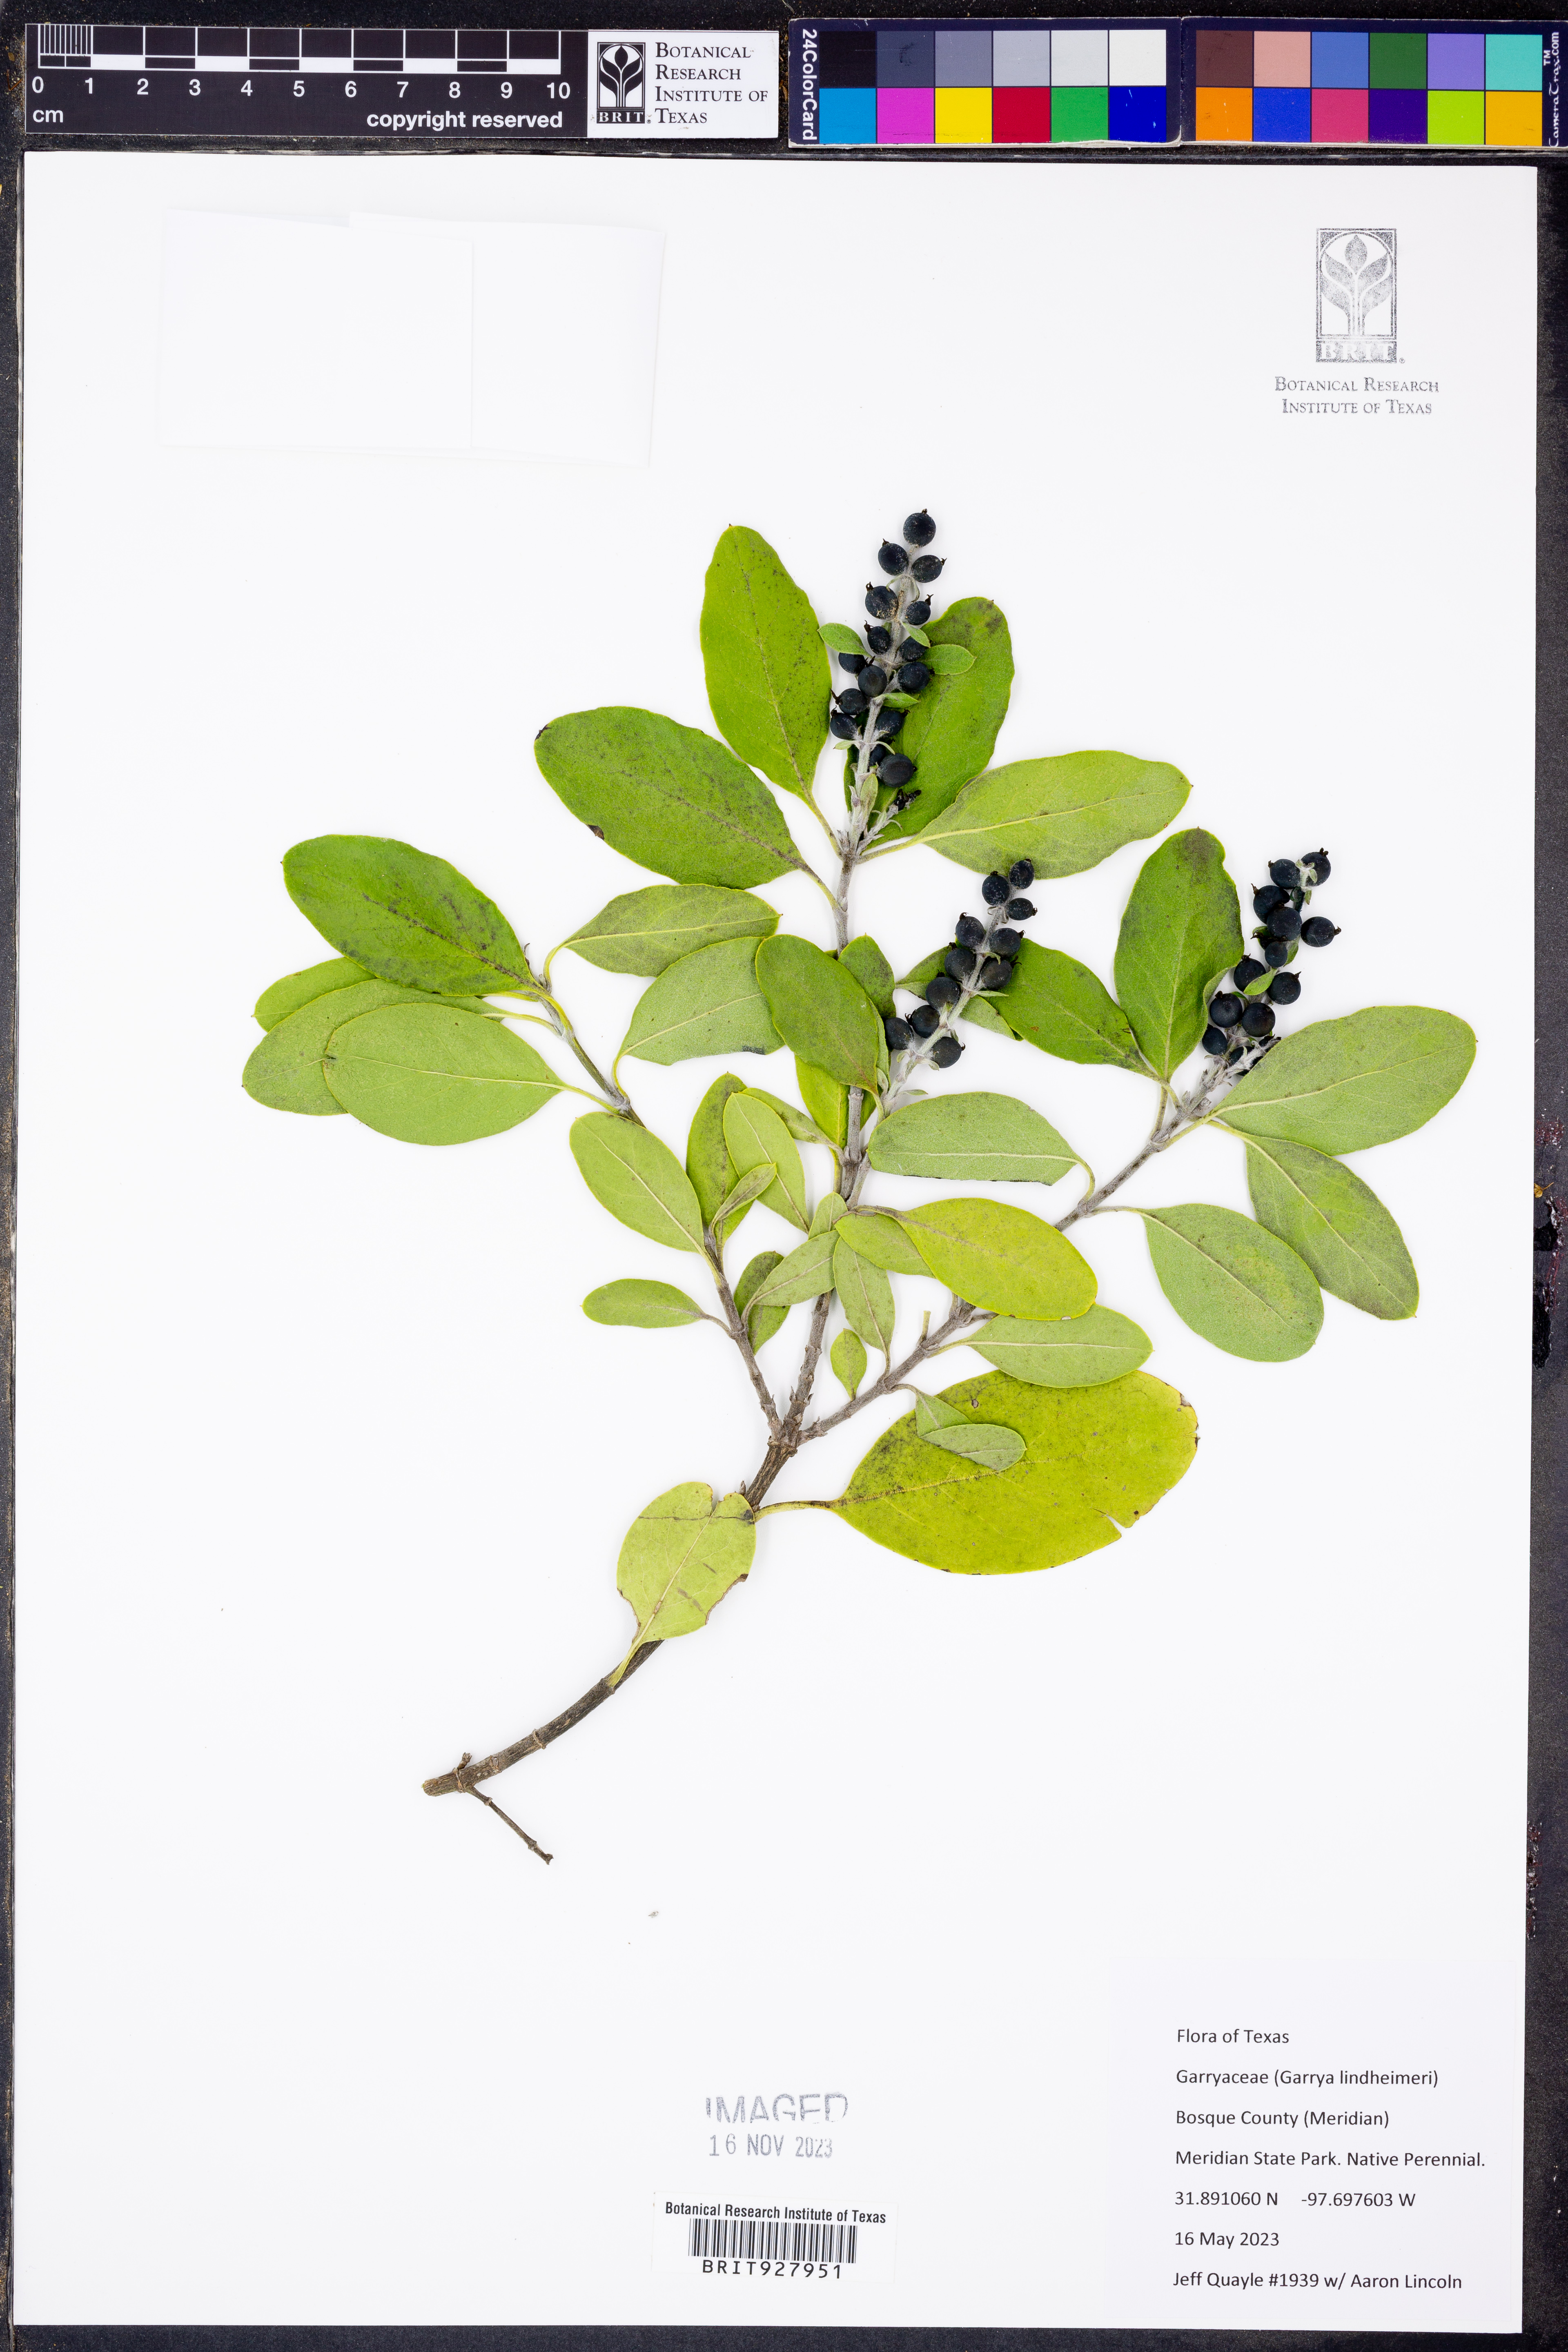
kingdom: Plantae
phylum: Tracheophyta
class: Magnoliopsida
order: Garryales
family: Garryaceae
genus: Garrya
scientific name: Garrya lindheimeri
